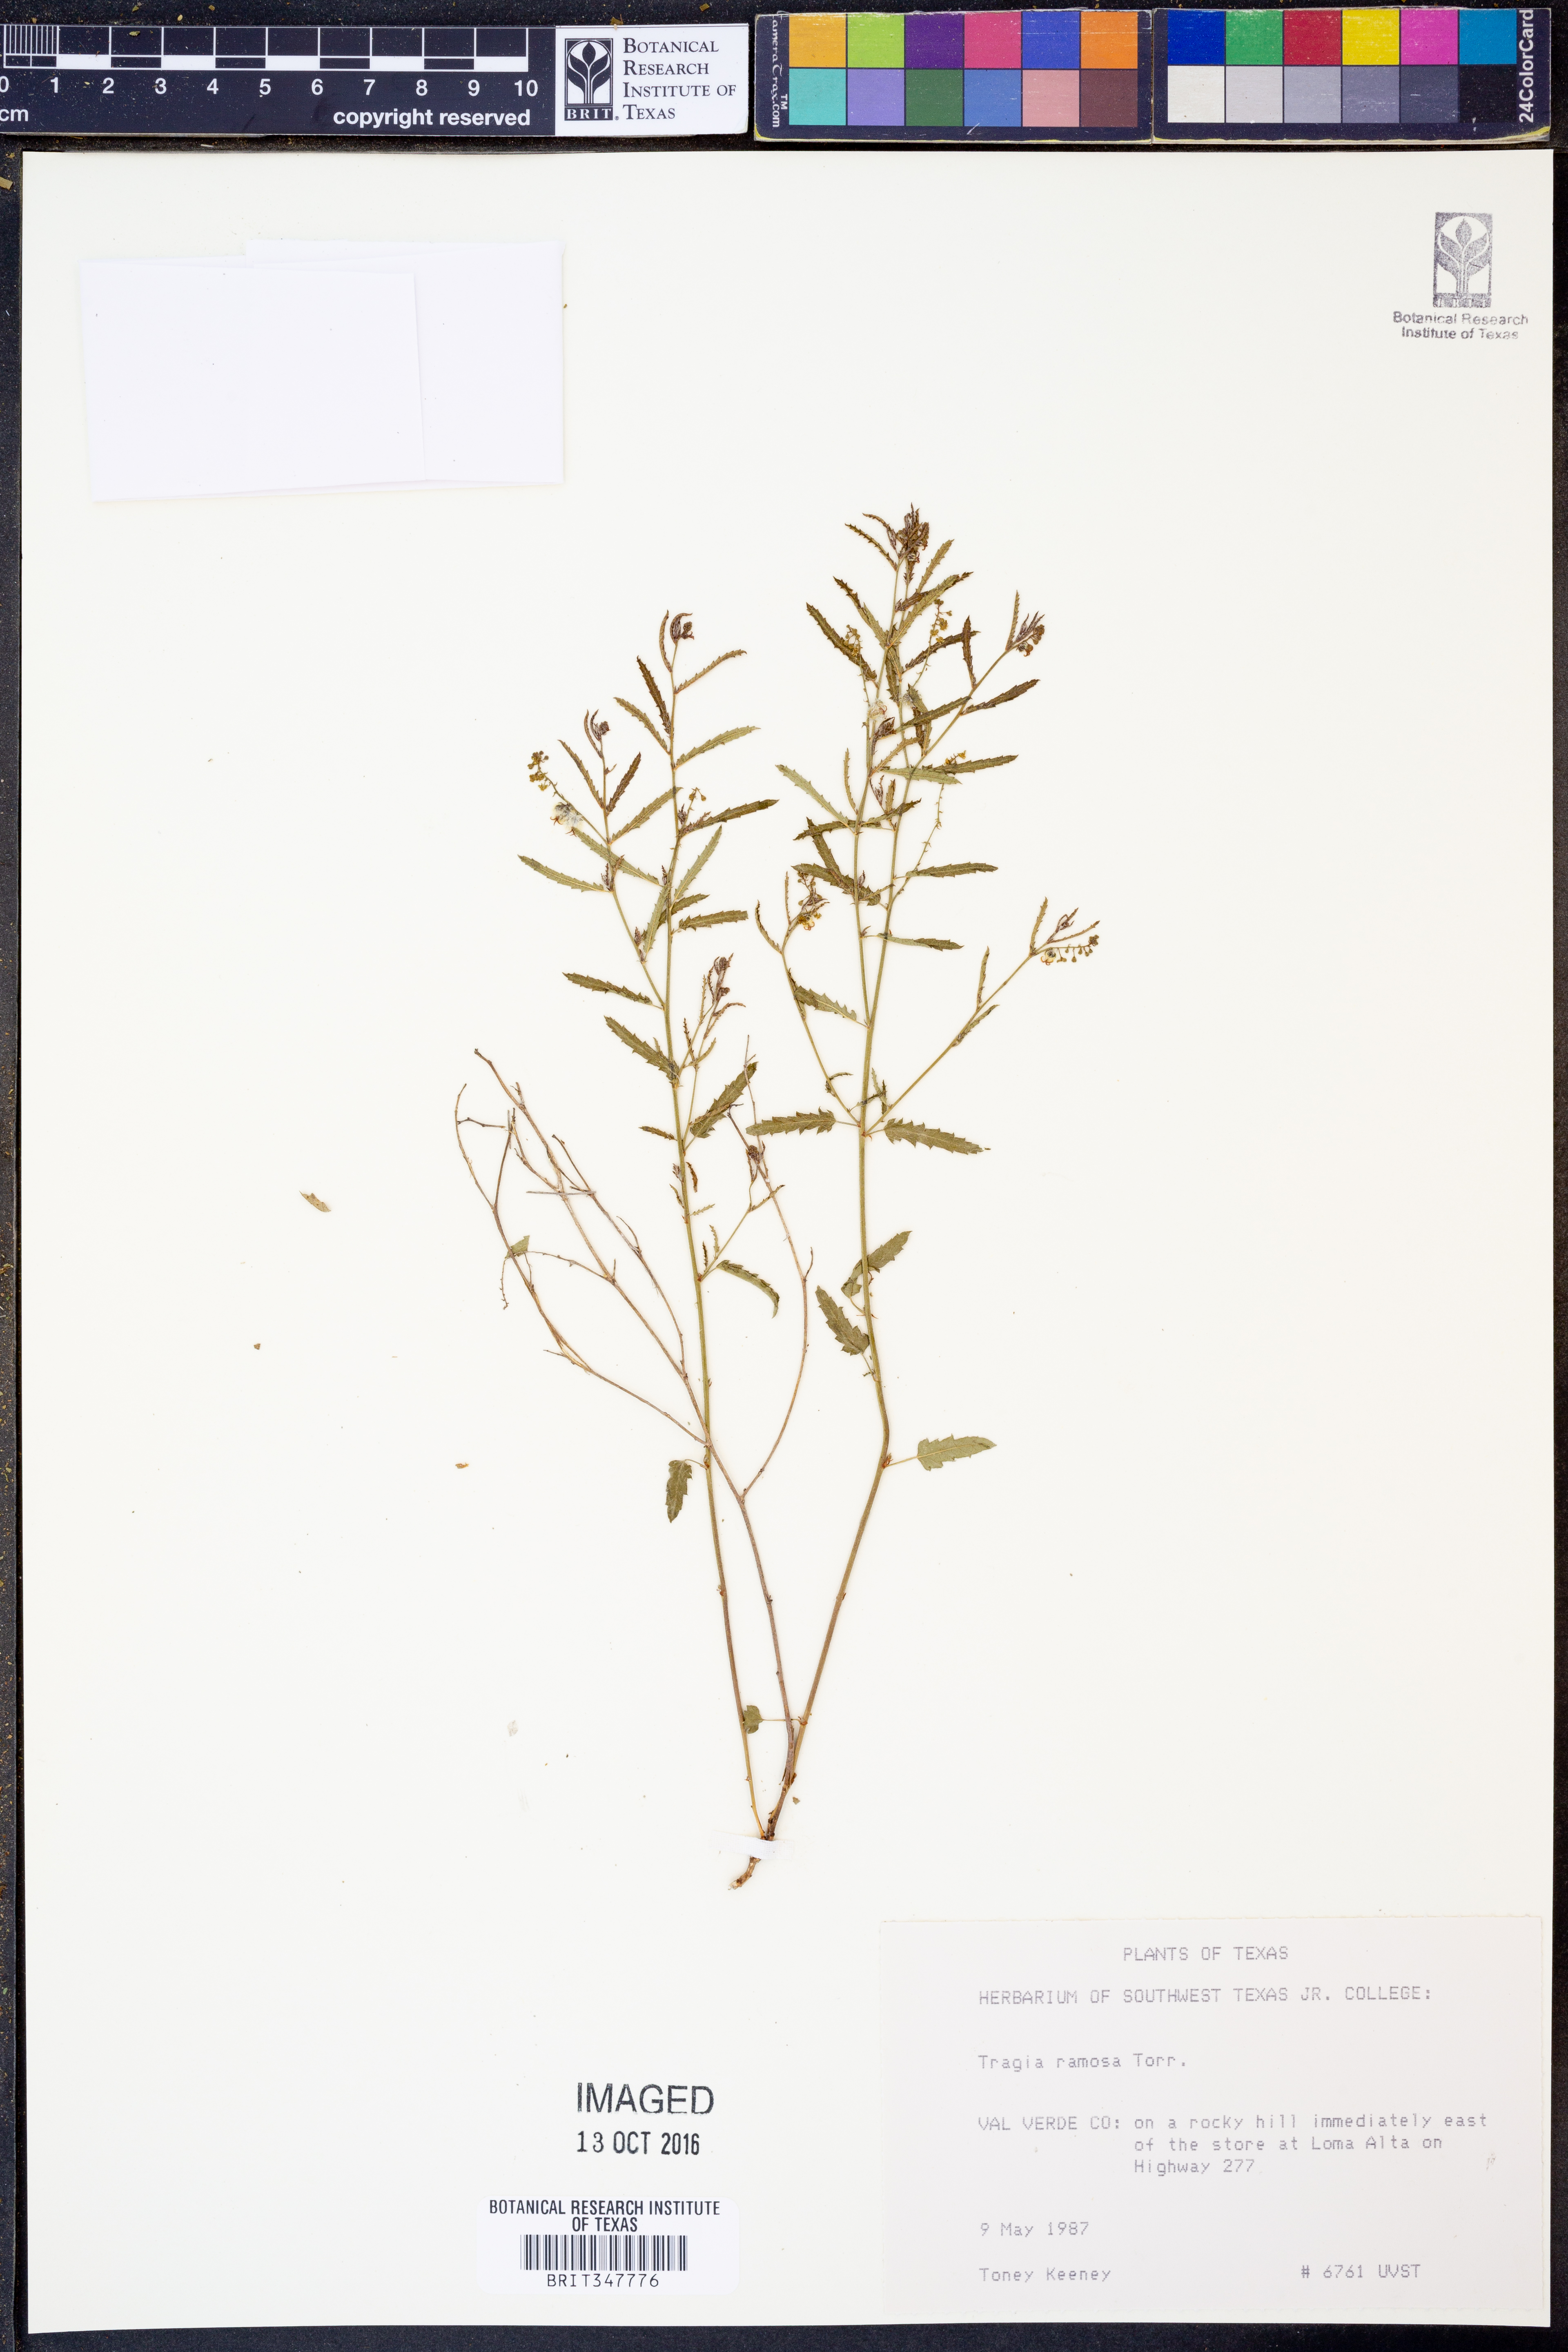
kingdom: Plantae
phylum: Tracheophyta
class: Magnoliopsida
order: Malpighiales
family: Euphorbiaceae
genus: Tragia
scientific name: Tragia ramosa
